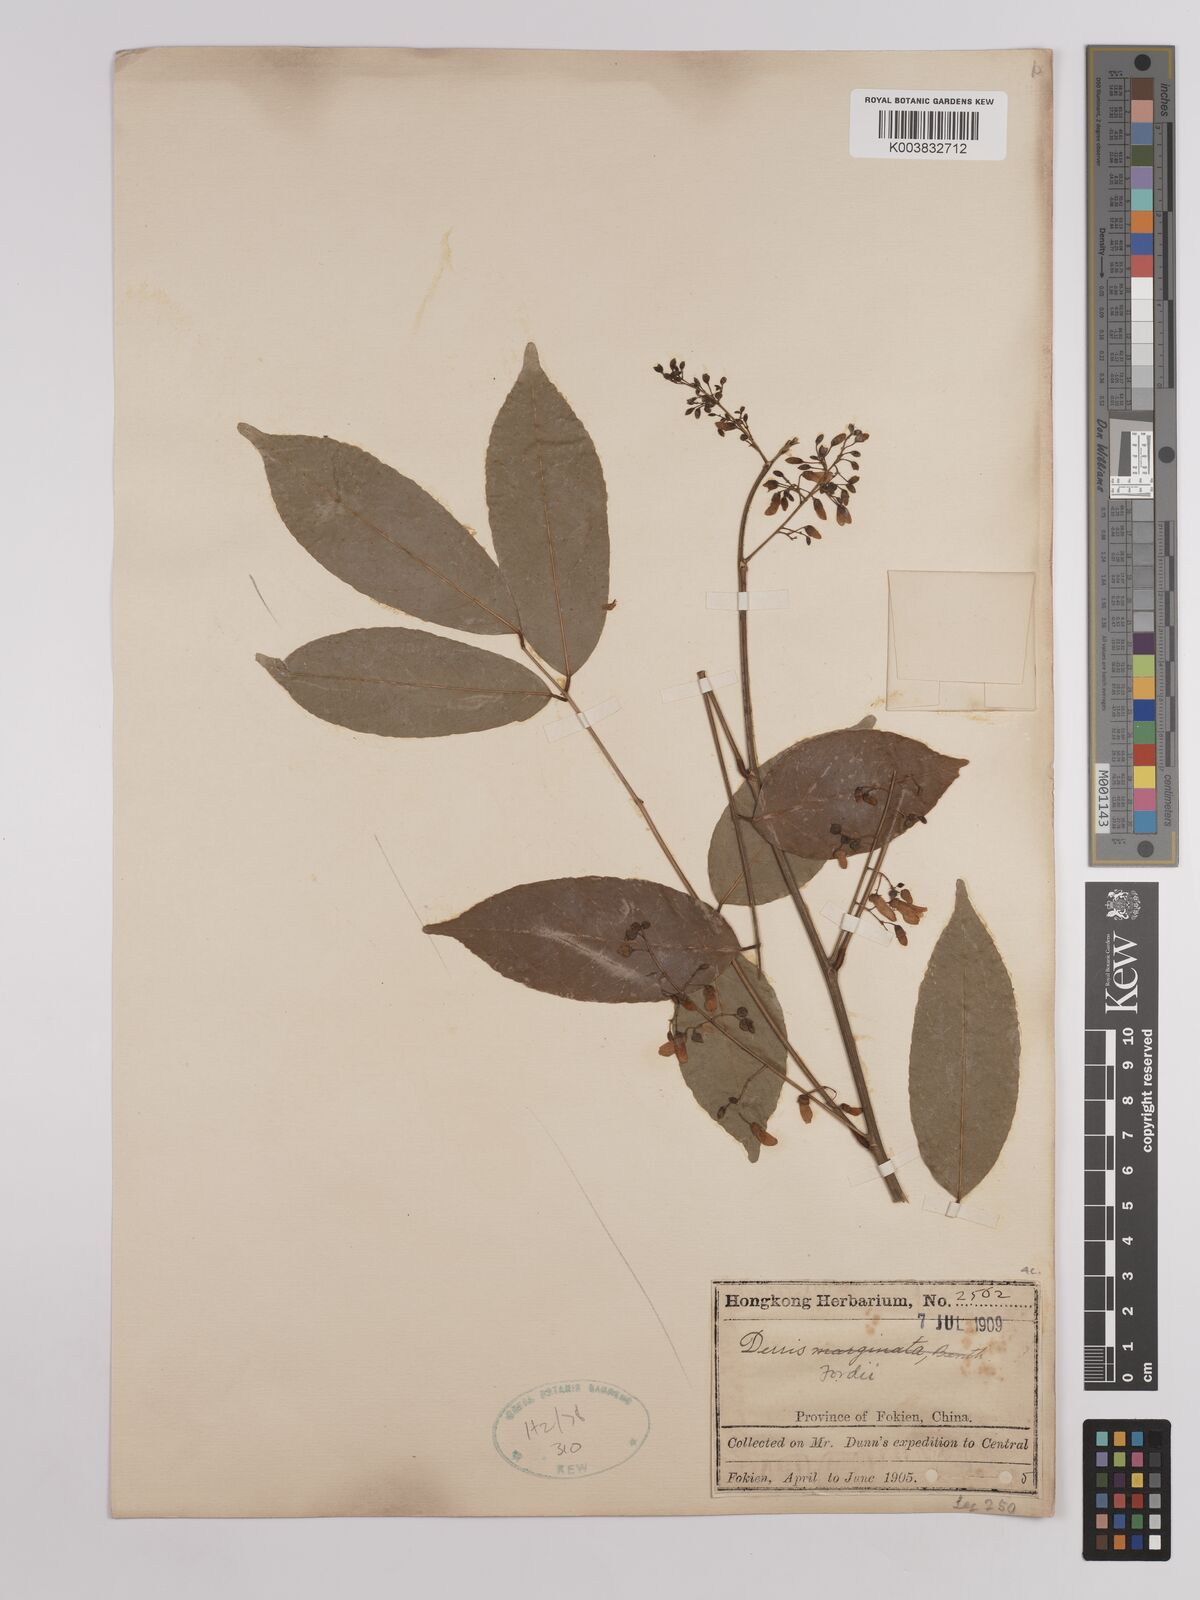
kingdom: Plantae
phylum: Tracheophyta
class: Magnoliopsida
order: Fabales
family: Fabaceae
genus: Derris
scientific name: Derris fordii
